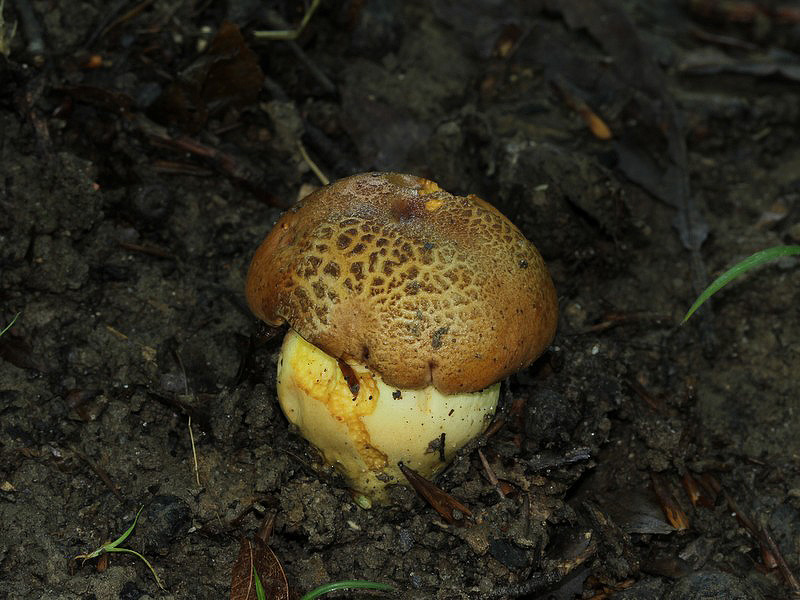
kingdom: Fungi
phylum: Basidiomycota
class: Agaricomycetes
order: Boletales
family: Boletaceae
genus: Butyriboletus
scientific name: Butyriboletus appendiculatus
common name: tenstokket rørhat
